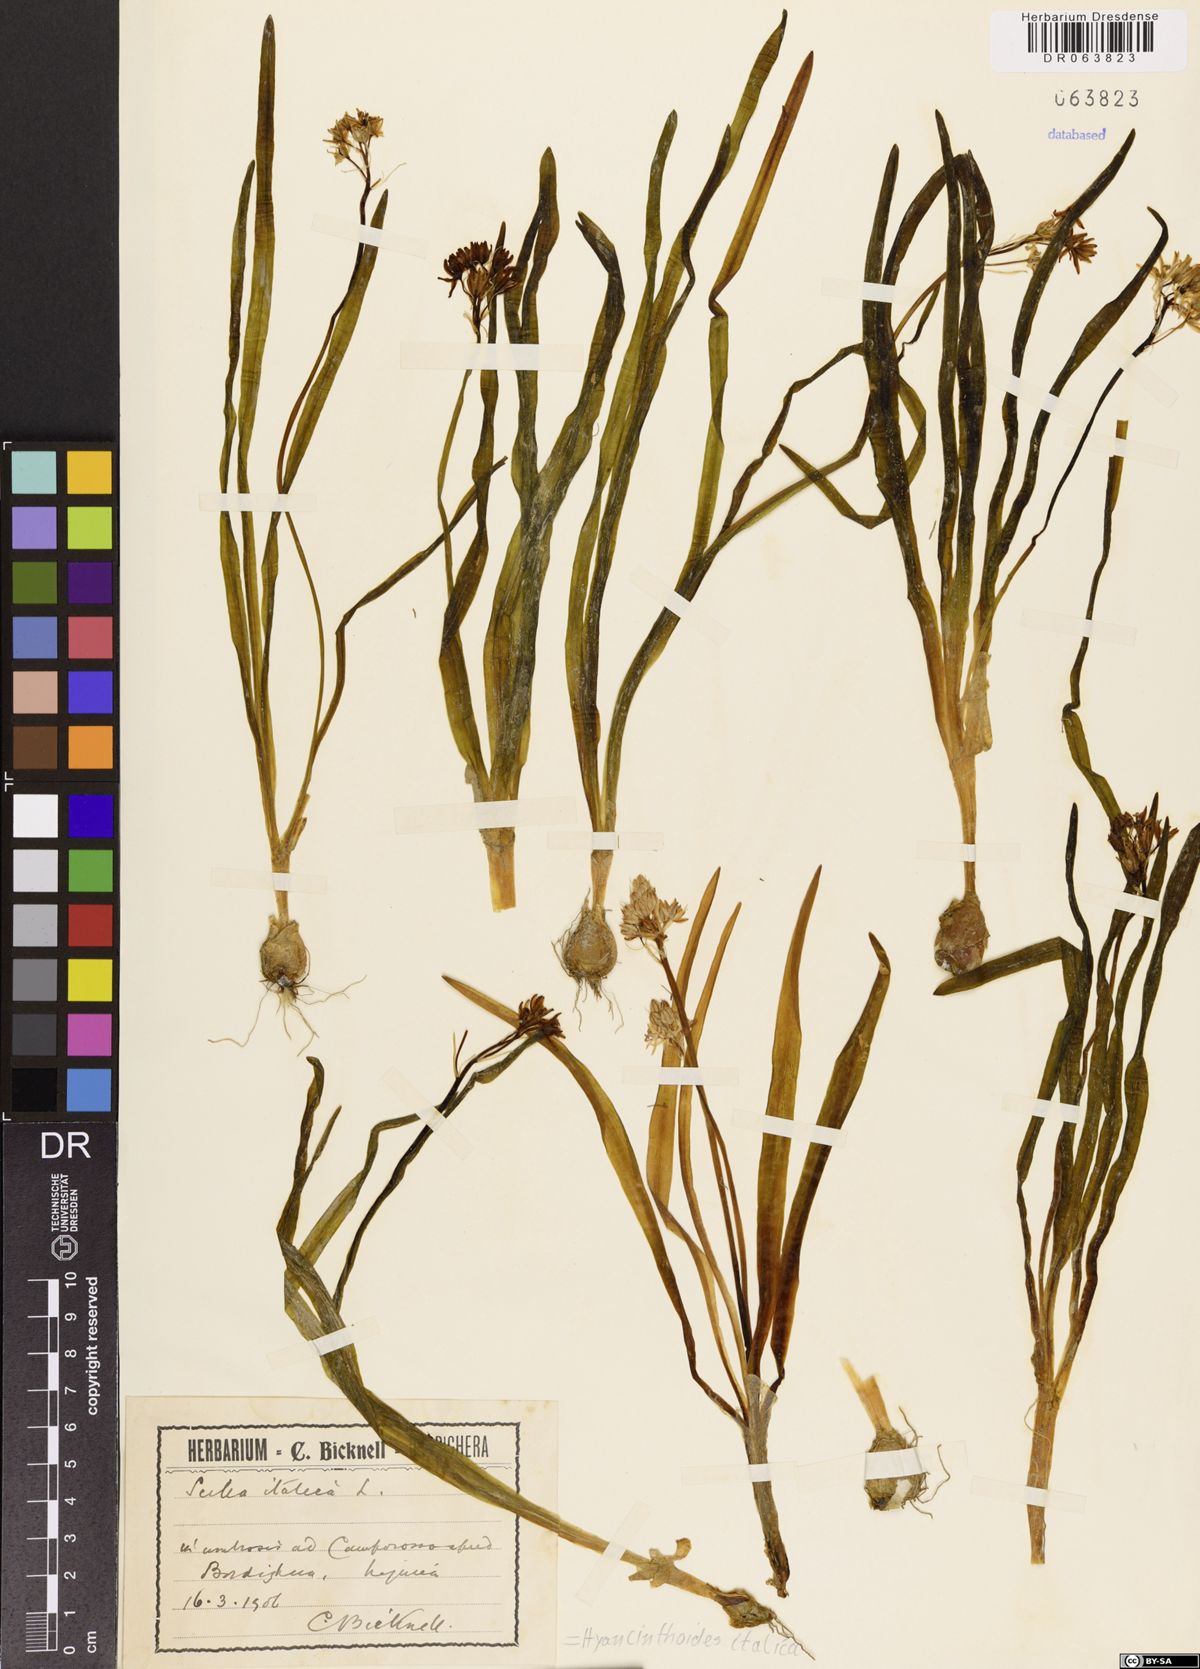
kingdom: Plantae
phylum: Tracheophyta
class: Liliopsida
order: Asparagales
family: Asparagaceae
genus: Hyacinthoides
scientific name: Hyacinthoides italica
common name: Italian bluebell
